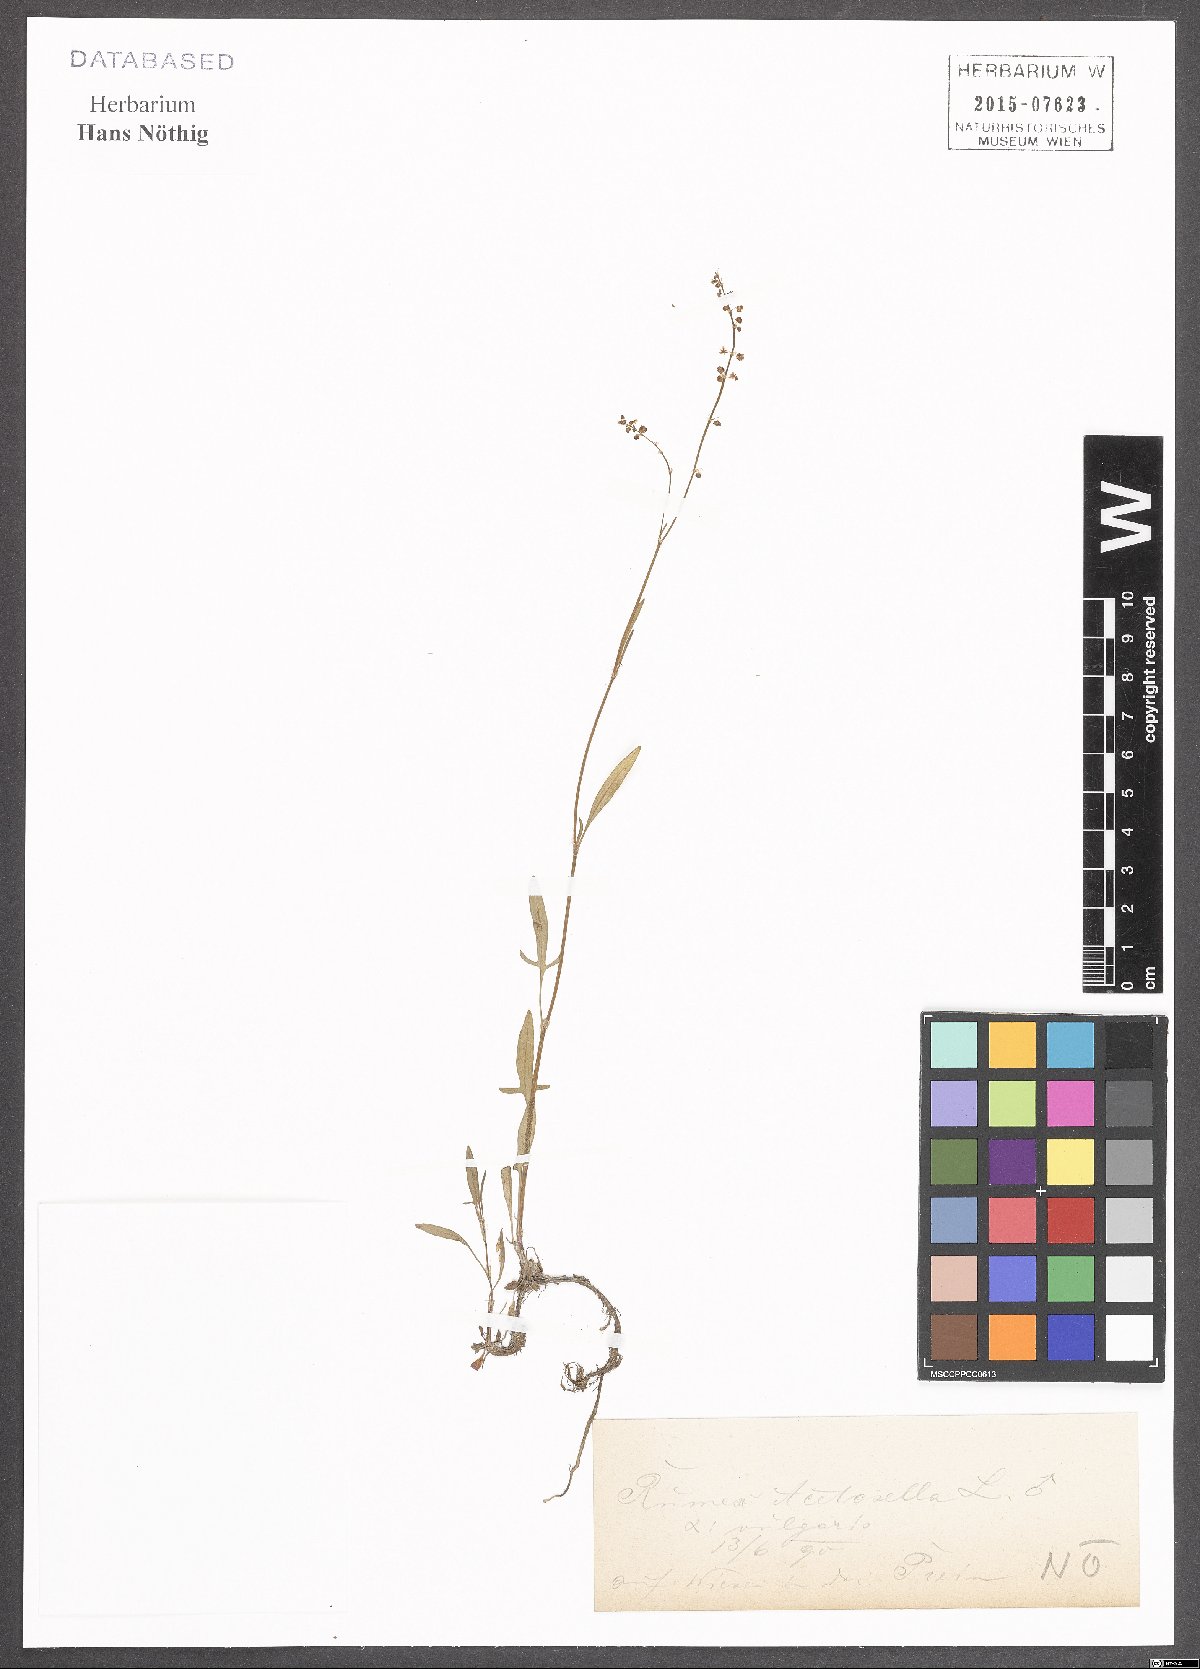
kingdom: Plantae
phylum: Tracheophyta
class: Magnoliopsida
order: Caryophyllales
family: Polygonaceae
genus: Rumex
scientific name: Rumex acetosella
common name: Common sheep sorrel
